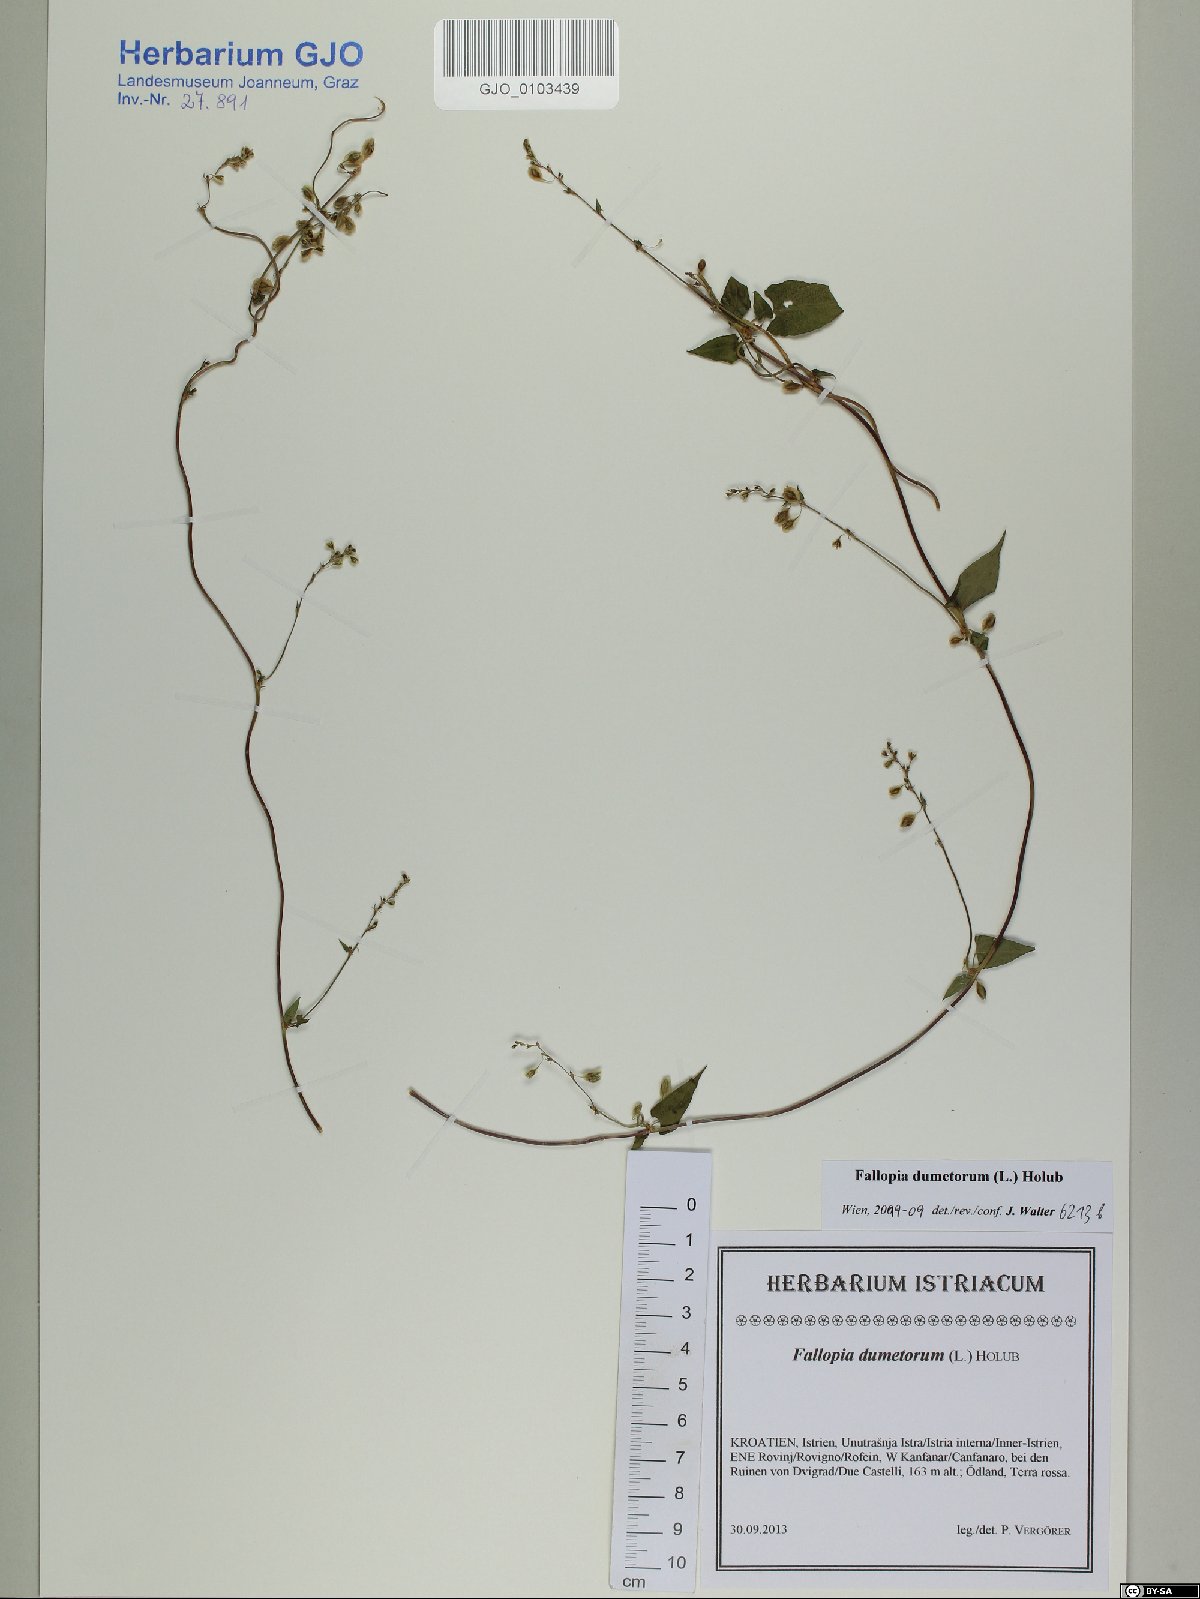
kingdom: Plantae
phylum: Tracheophyta
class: Magnoliopsida
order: Caryophyllales
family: Polygonaceae
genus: Fallopia
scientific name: Fallopia dumetorum
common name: Copse-bindweed
